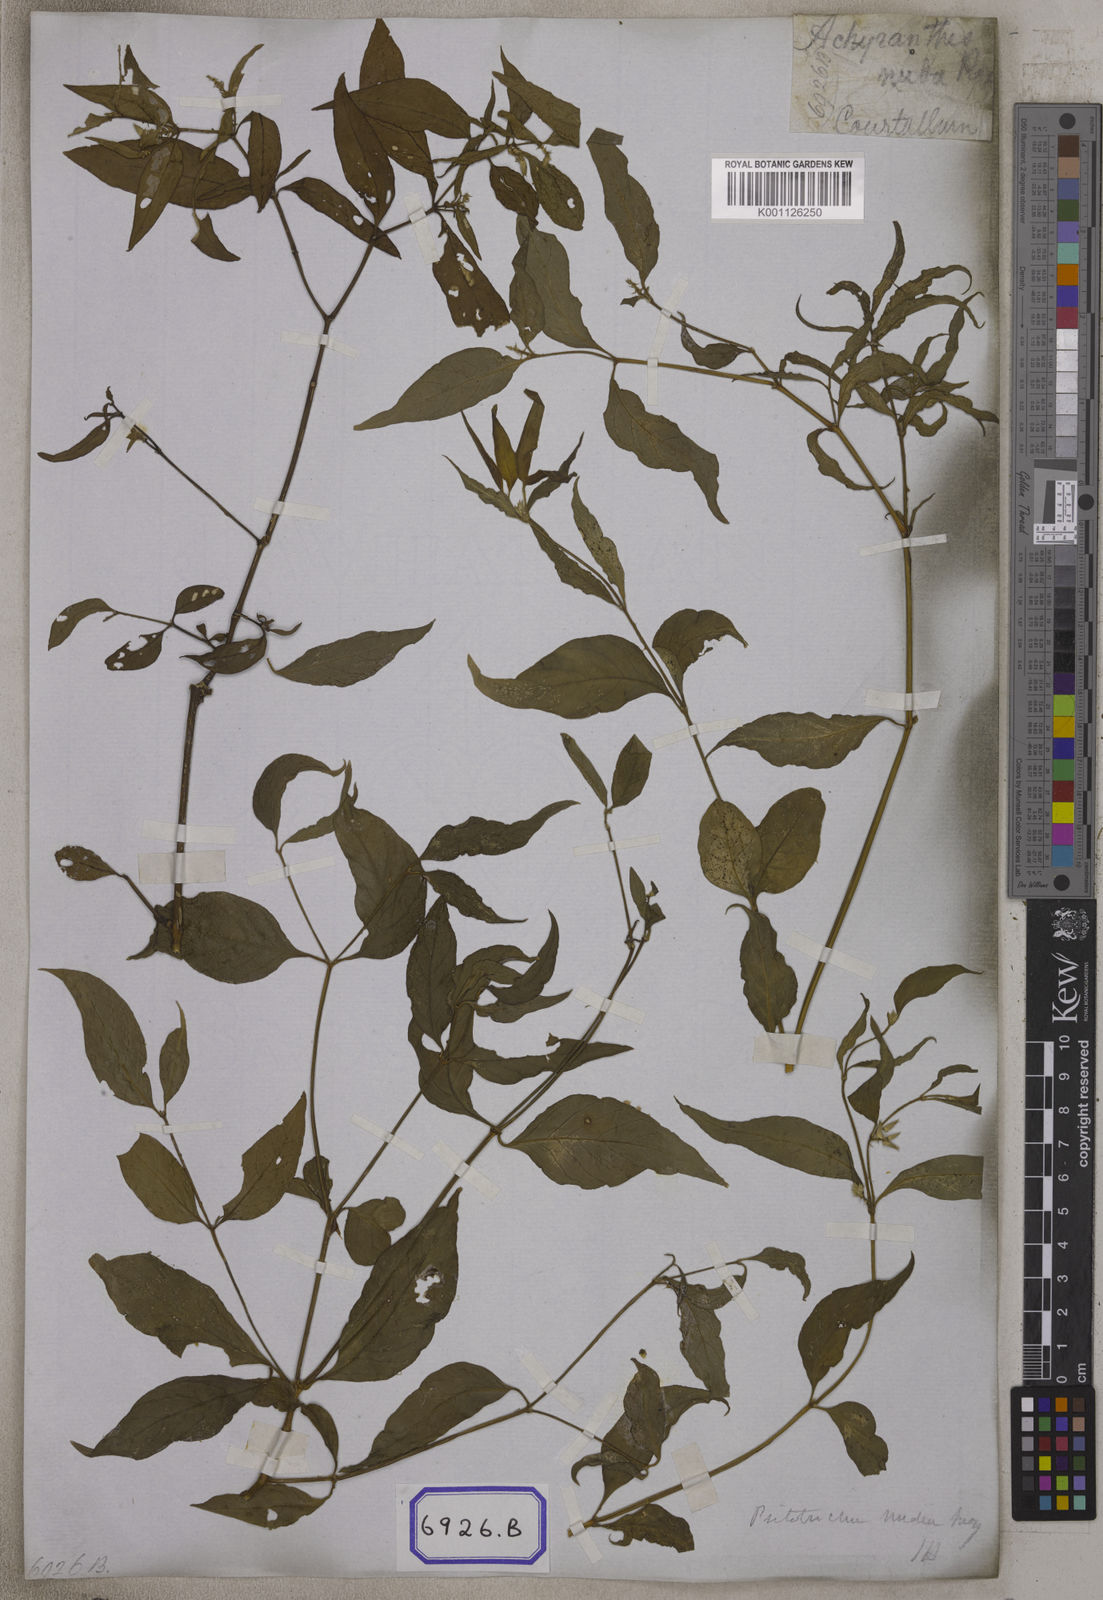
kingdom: Plantae
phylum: Tracheophyta
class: Magnoliopsida
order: Caryophyllales
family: Amaranthaceae
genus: Psilotrichum
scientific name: Psilotrichum nudum
